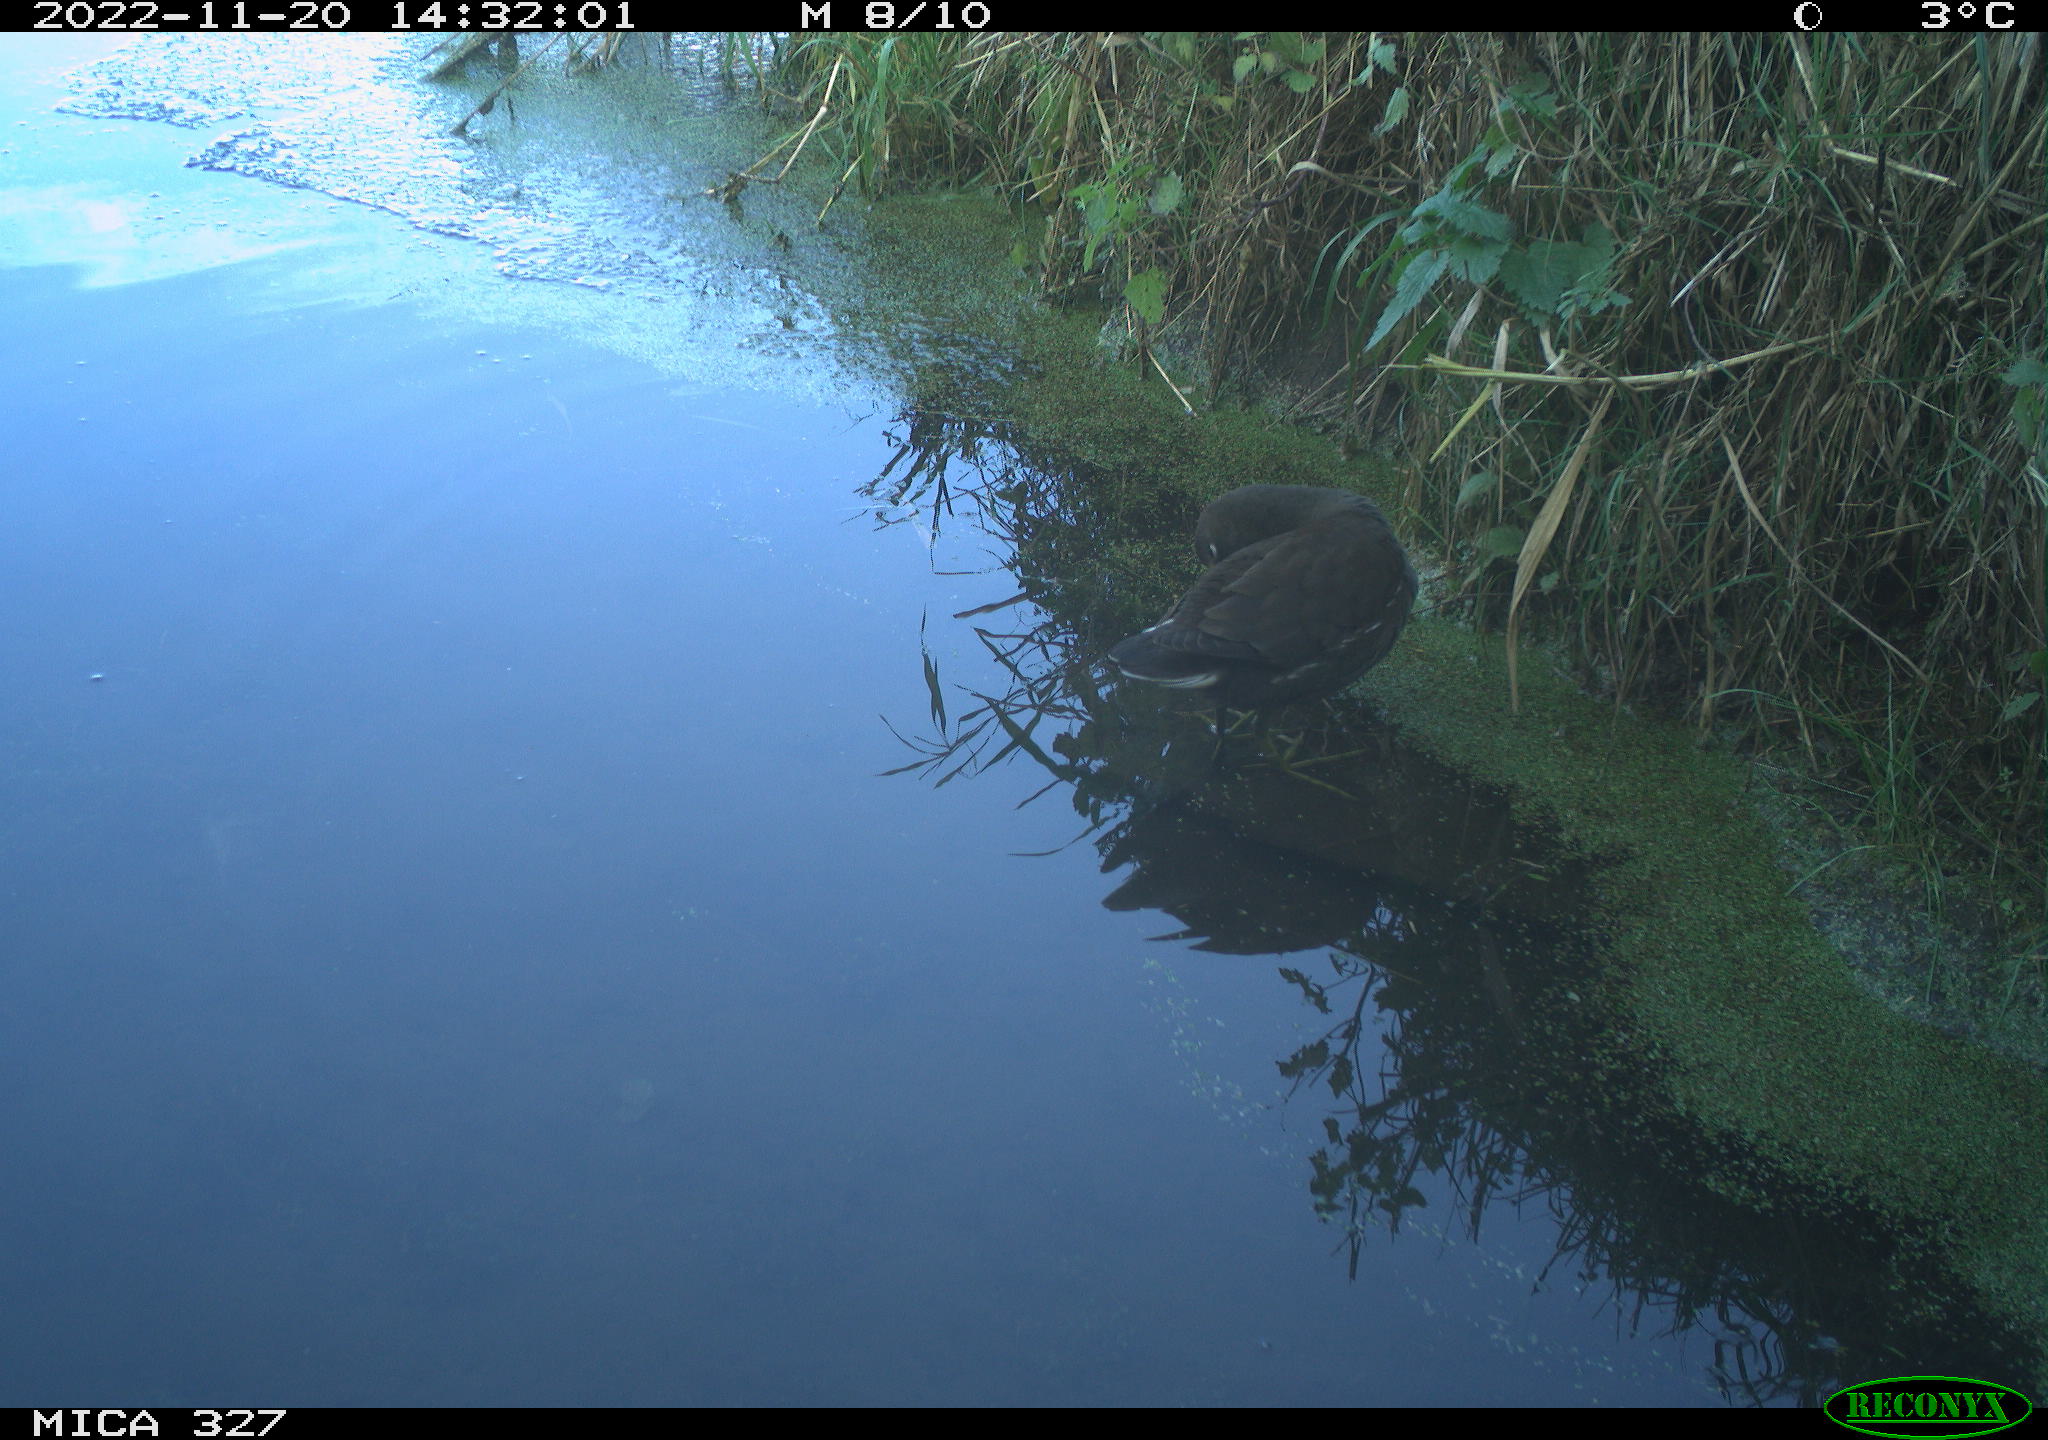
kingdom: Animalia
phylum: Chordata
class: Aves
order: Gruiformes
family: Rallidae
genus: Gallinula
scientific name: Gallinula chloropus
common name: Common moorhen
